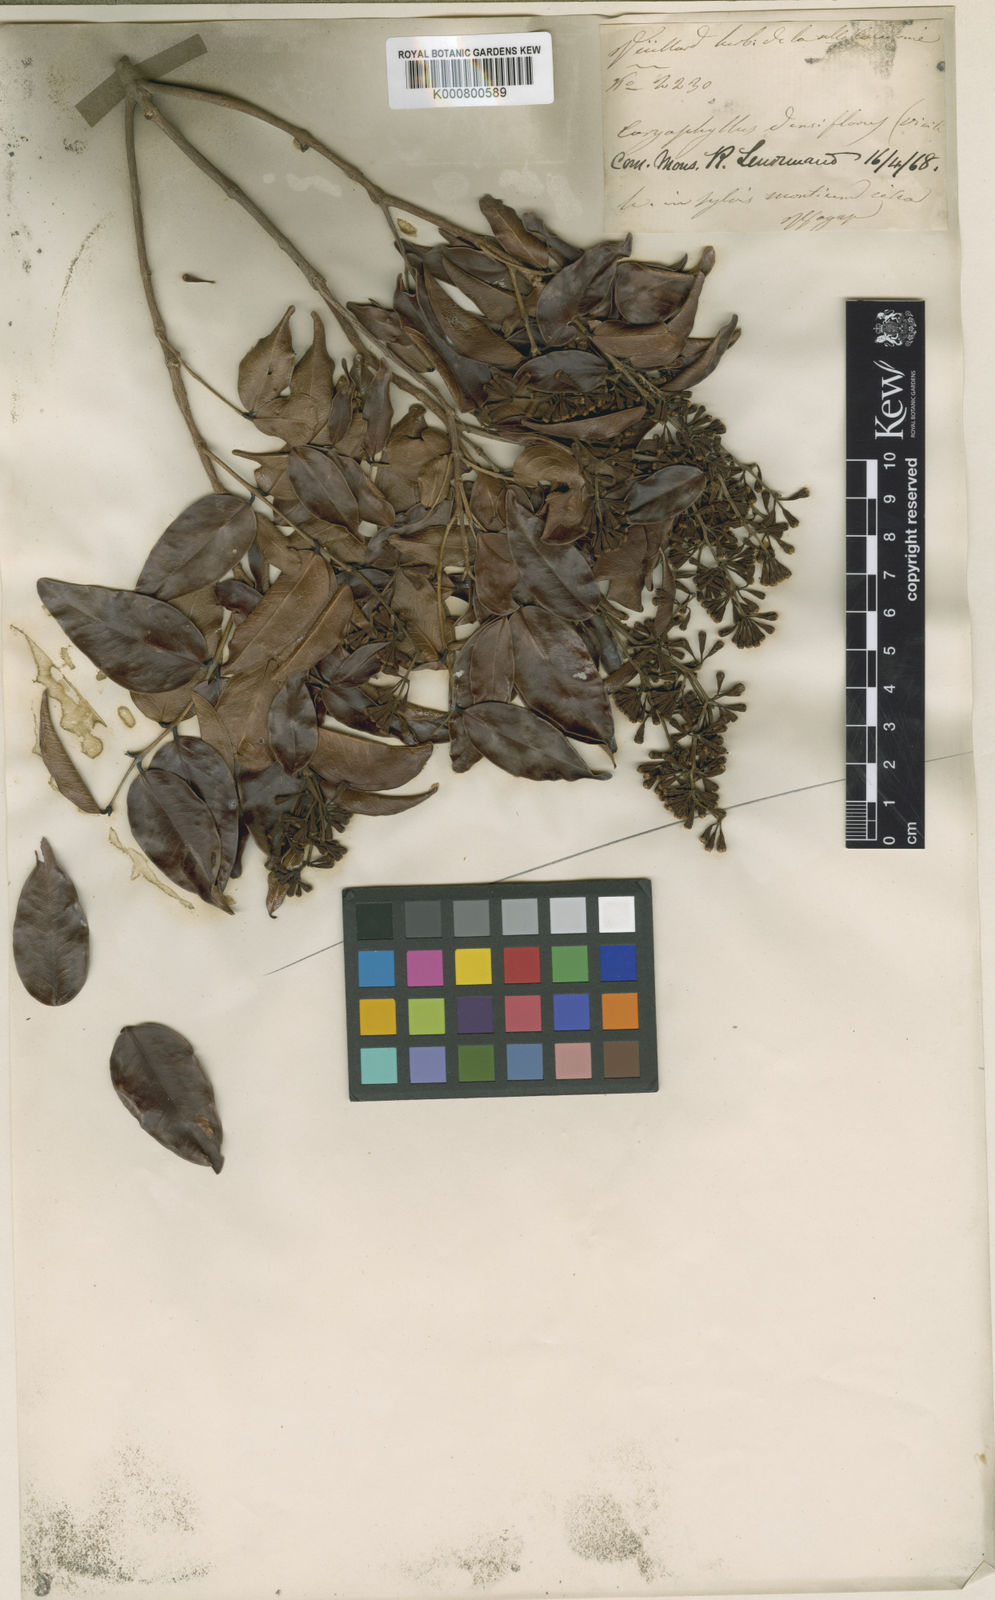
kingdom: Plantae
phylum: Tracheophyta
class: Magnoliopsida
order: Myrtales
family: Myrtaceae
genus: Syzygium
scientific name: Syzygium
